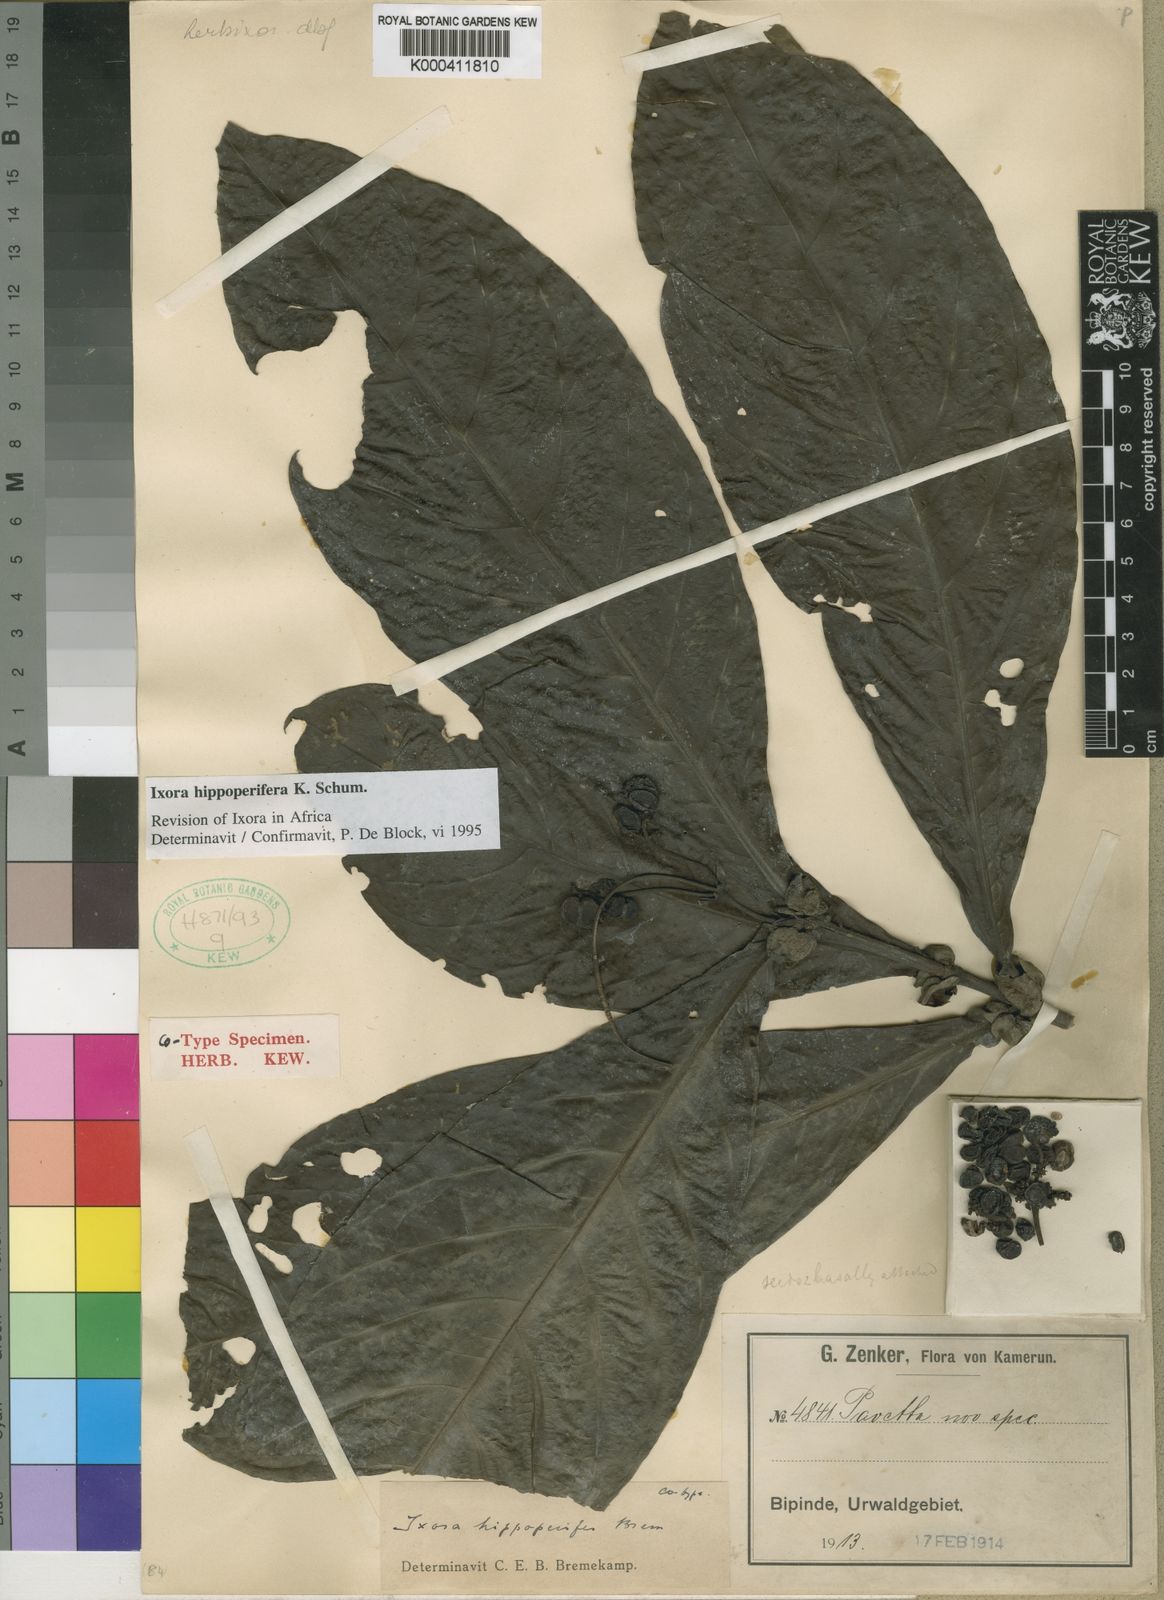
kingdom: Plantae
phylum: Tracheophyta
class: Magnoliopsida
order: Gentianales
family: Rubiaceae
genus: Ixora
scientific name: Ixora hippoperifera
